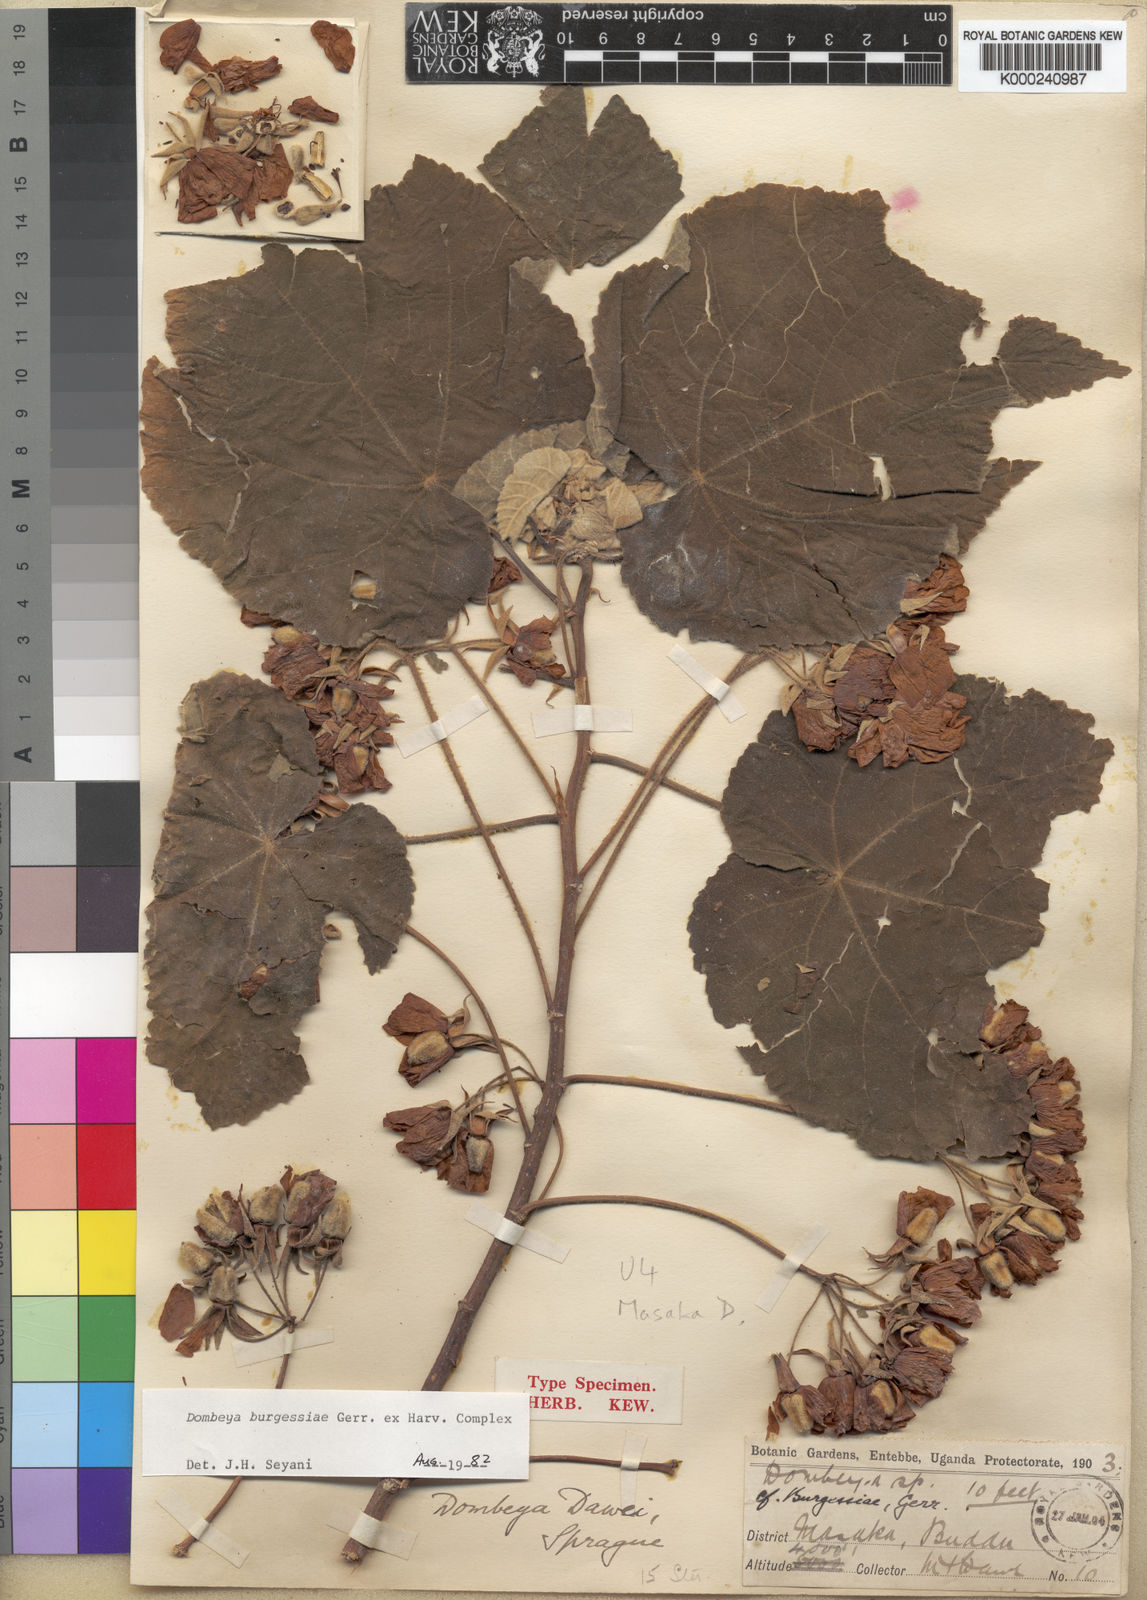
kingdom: Plantae
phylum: Tracheophyta
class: Magnoliopsida
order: Malvales
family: Malvaceae
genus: Dombeya
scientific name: Dombeya burgessiae
